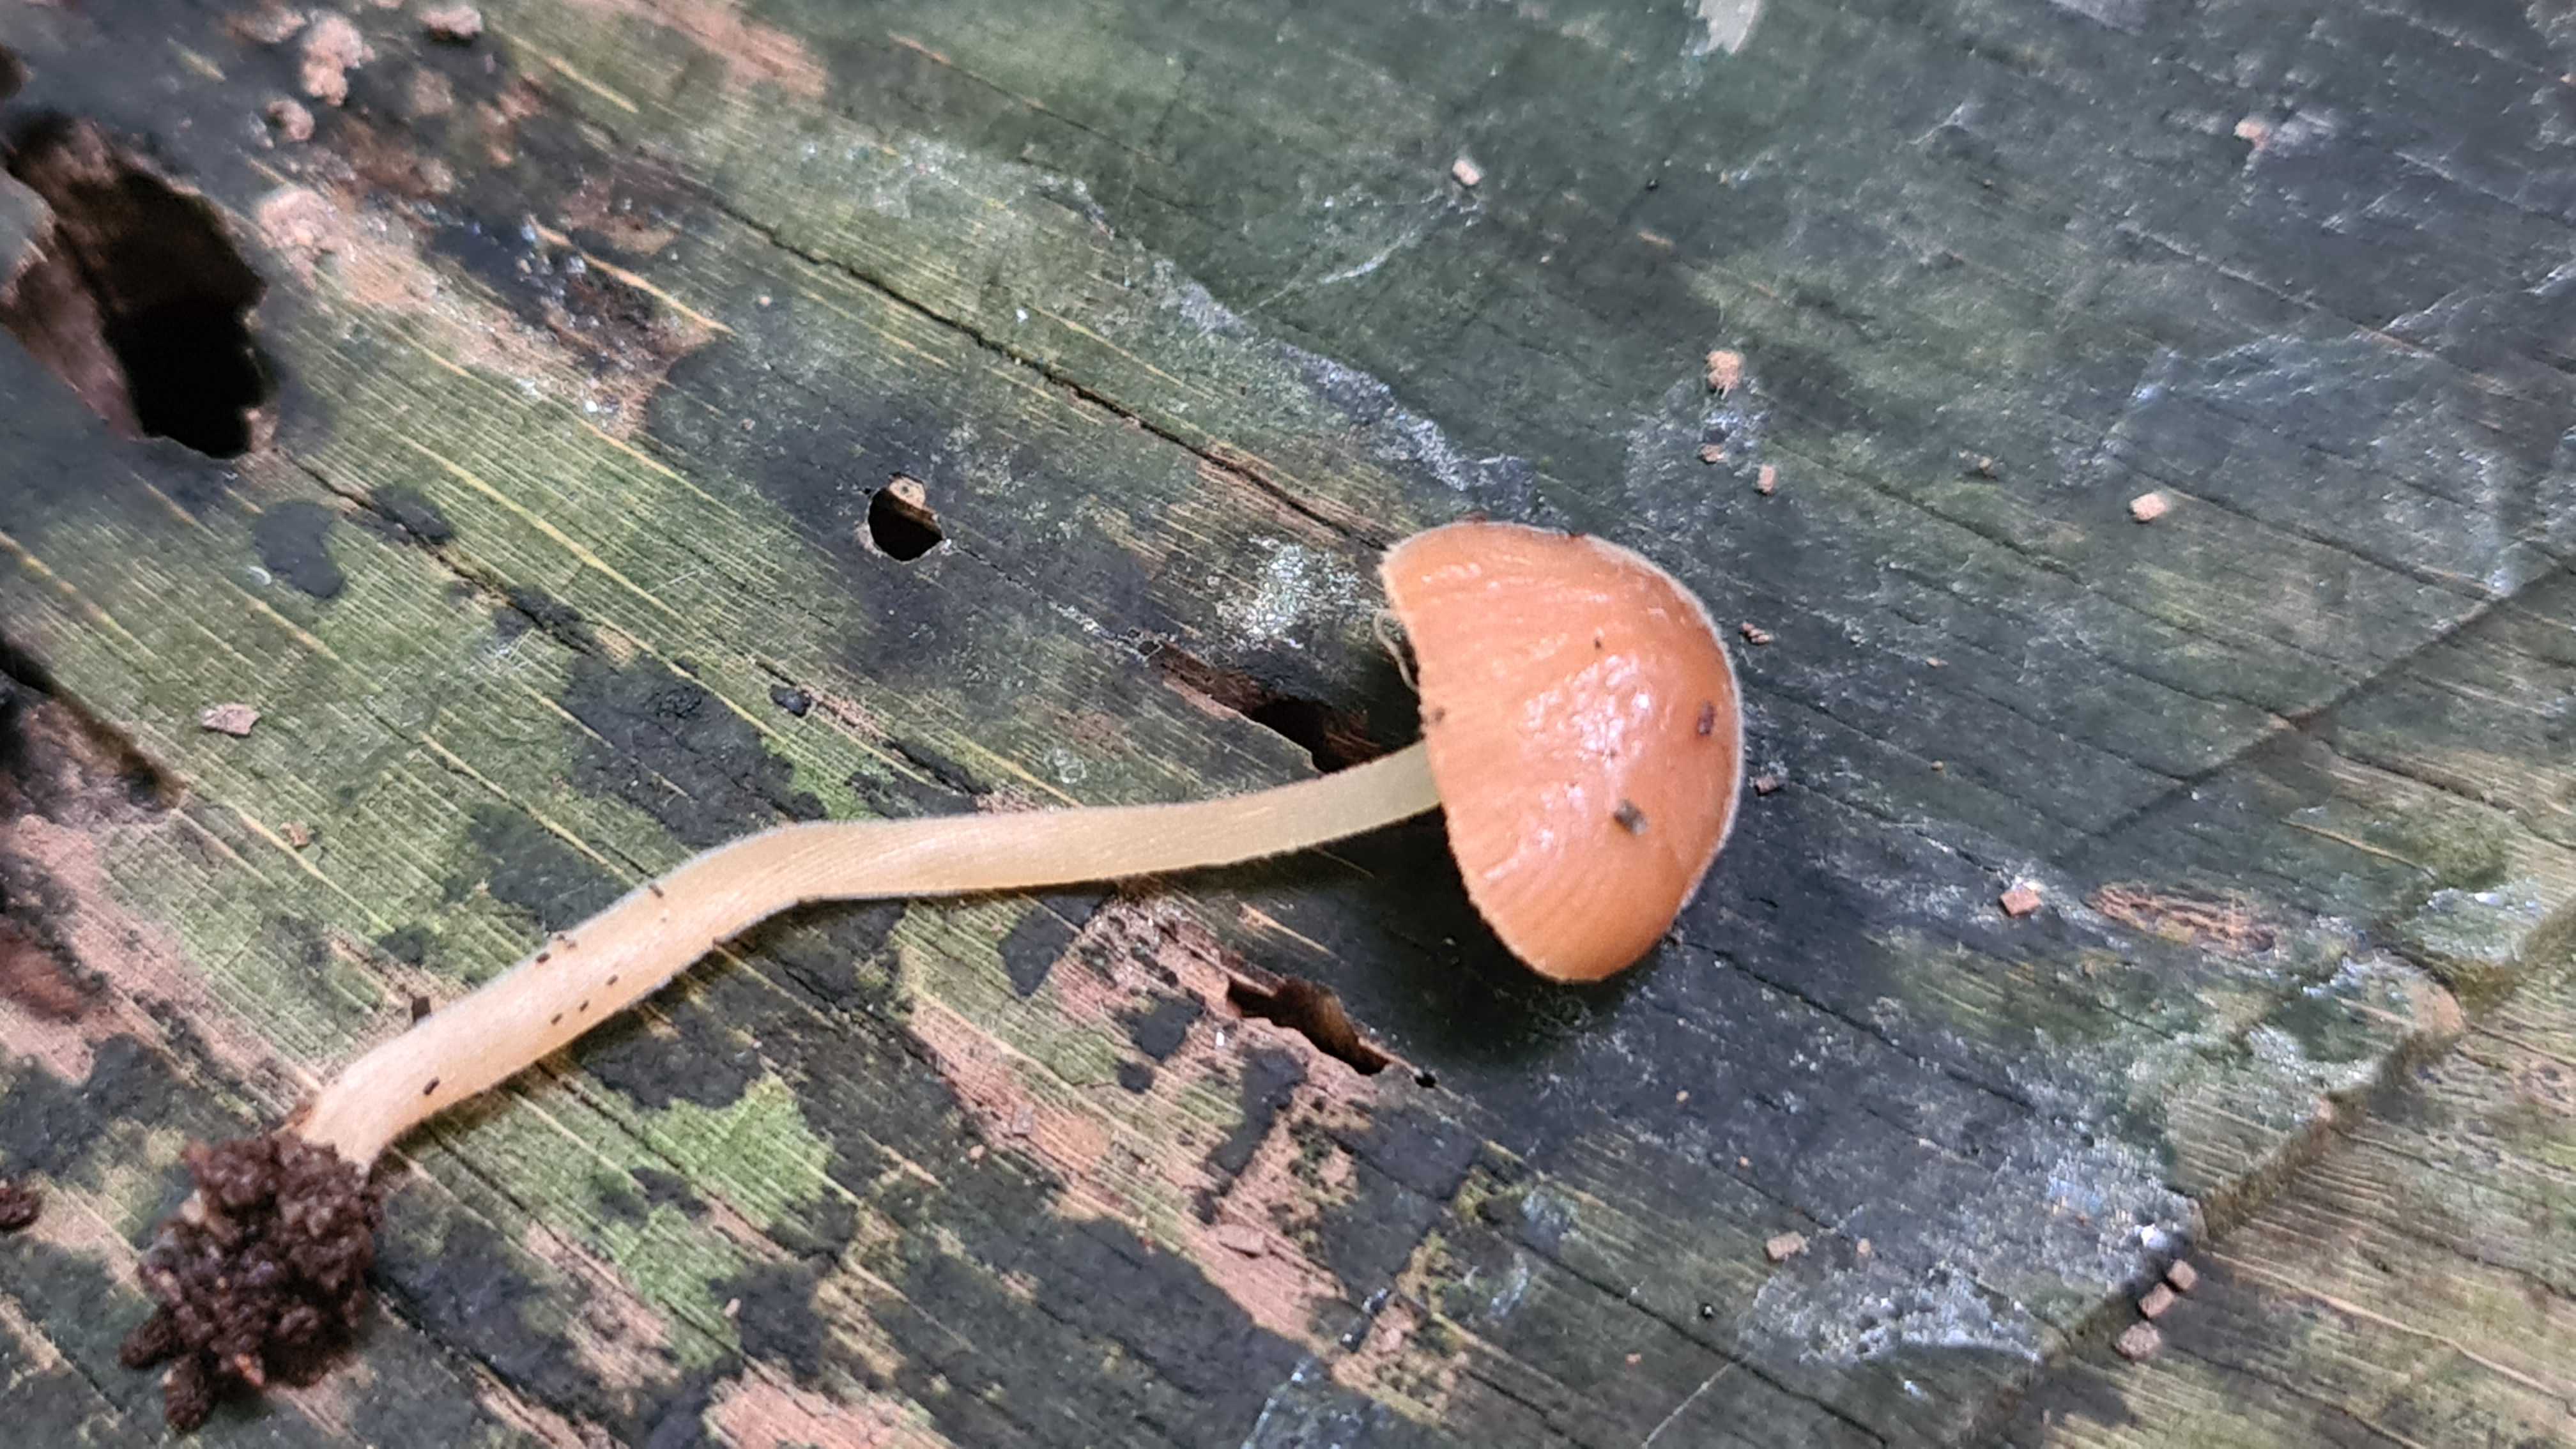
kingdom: Fungi
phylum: Basidiomycota
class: Agaricomycetes
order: Agaricales
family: Bolbitiaceae
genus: Conocybe
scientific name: Conocybe subpubescens
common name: krat-keglehat
